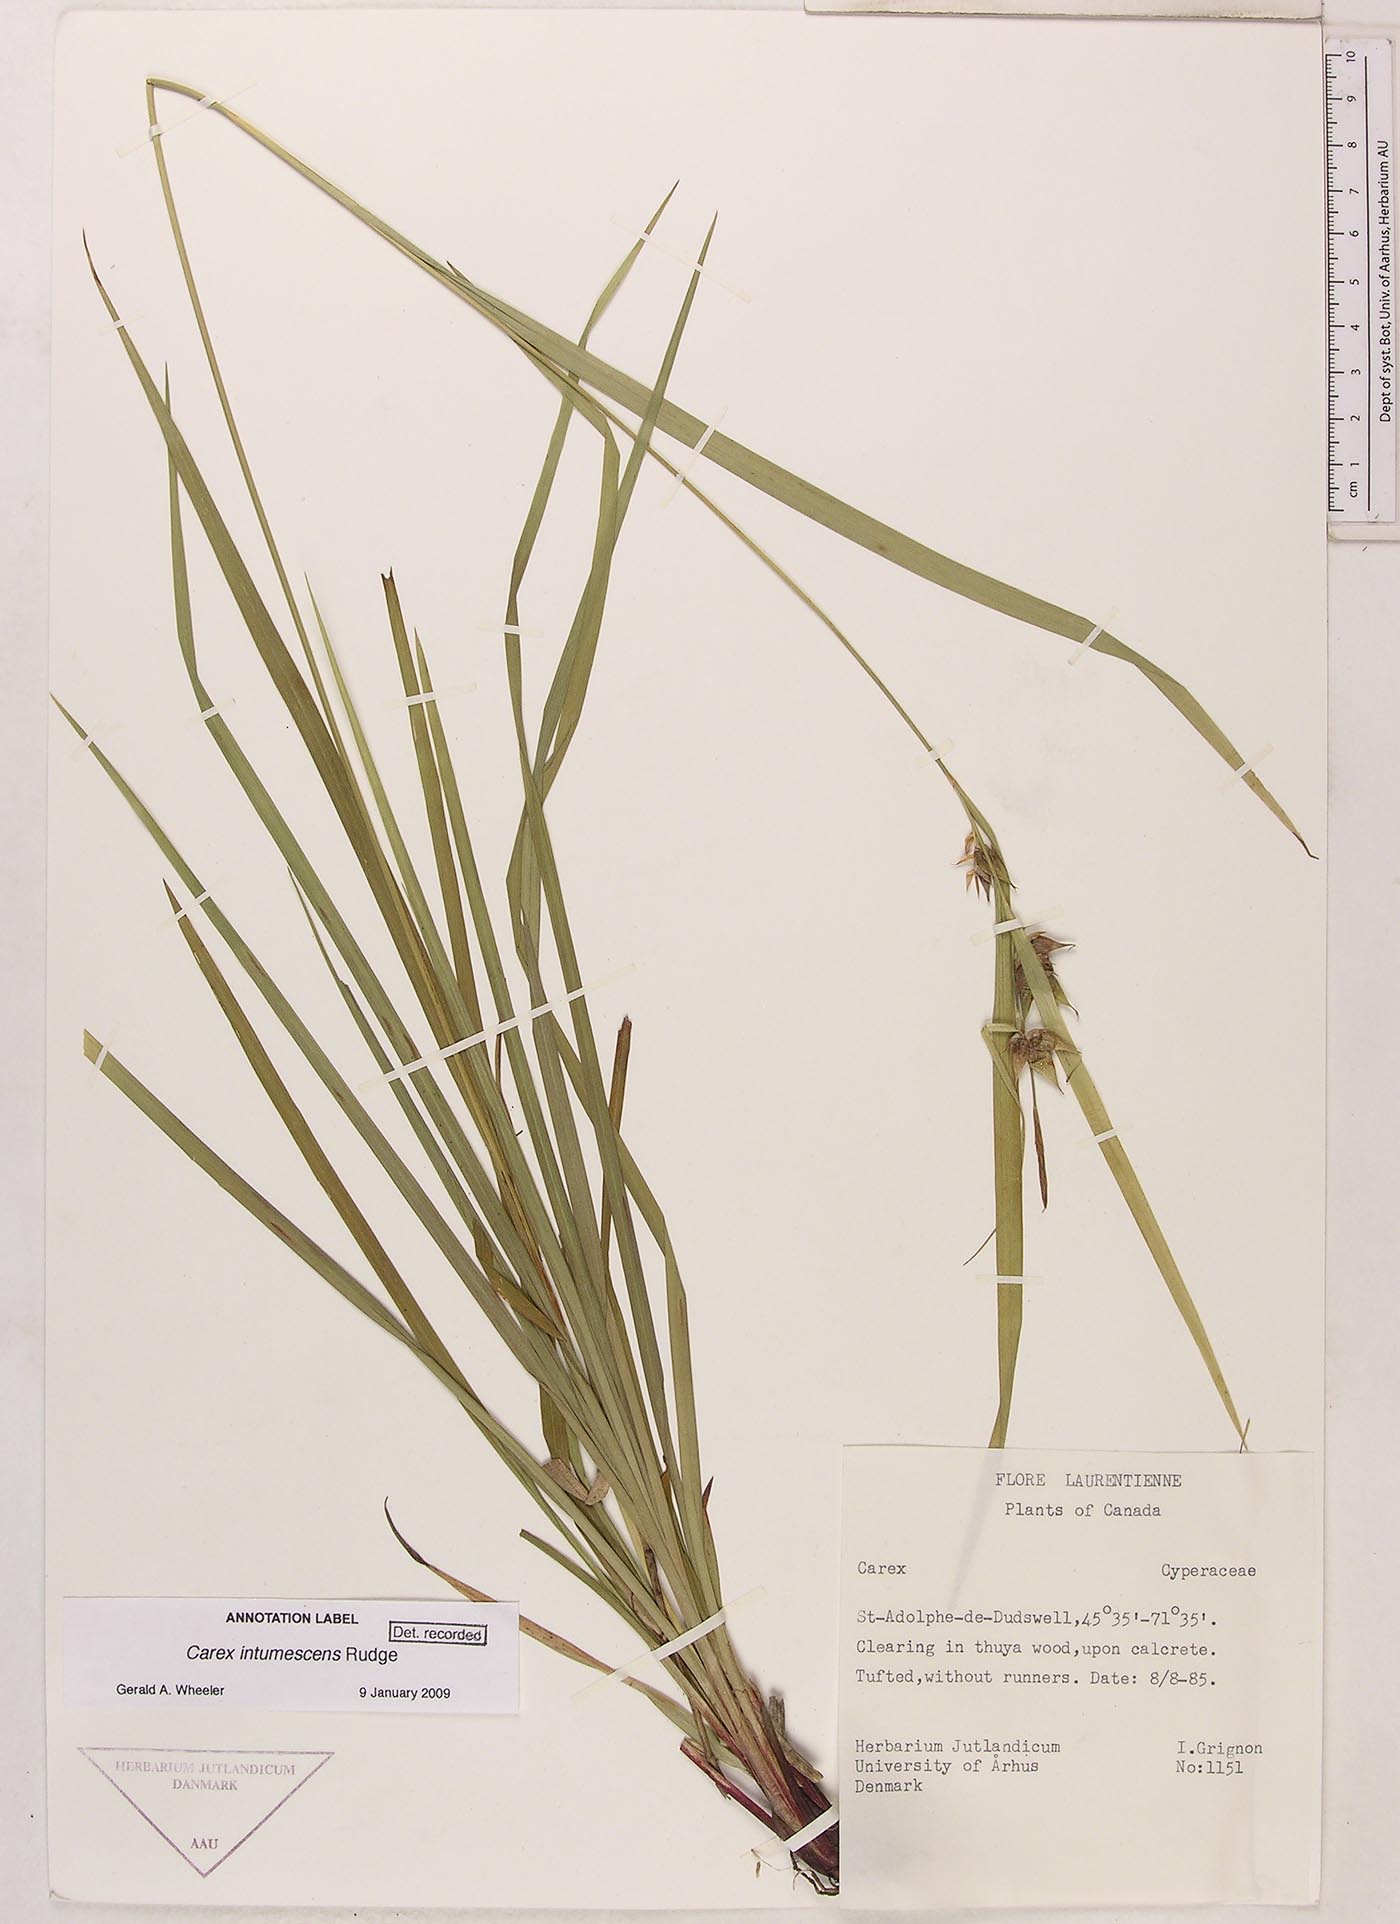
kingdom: Plantae
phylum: Tracheophyta
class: Liliopsida
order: Poales
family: Cyperaceae
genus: Carex
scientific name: Carex intumescens
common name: Greater bladder sedge
